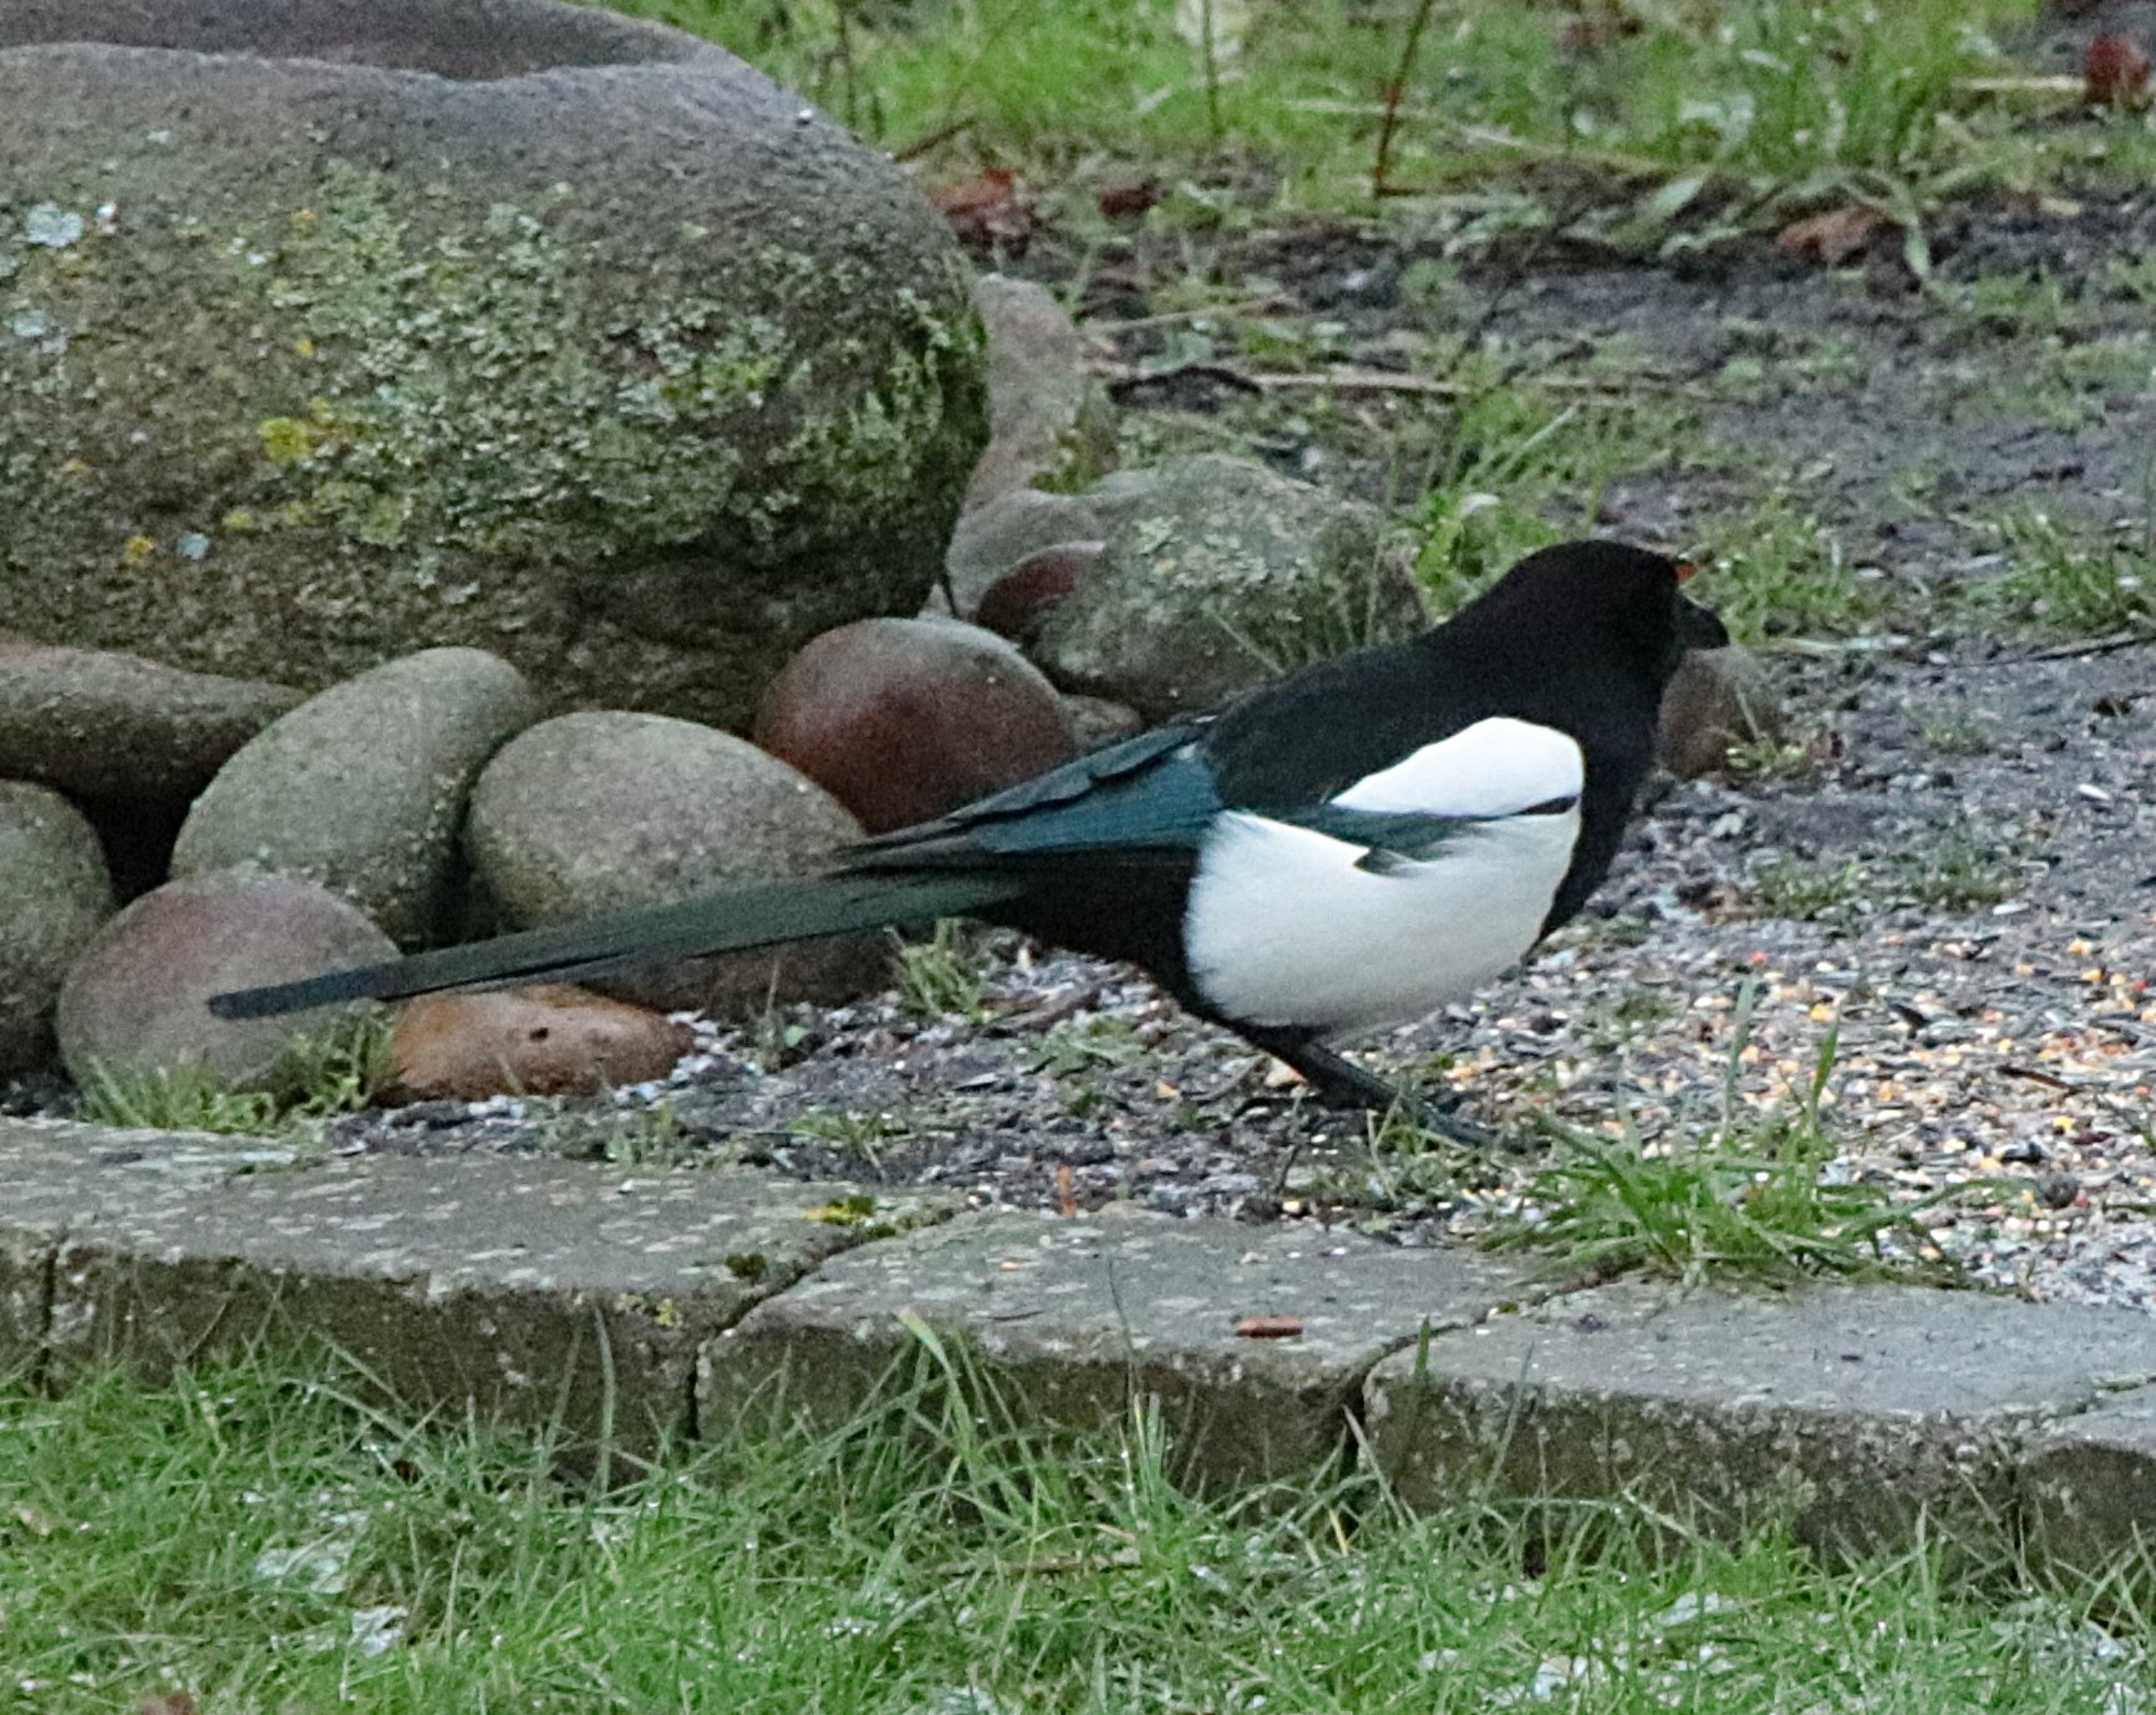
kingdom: Animalia
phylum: Chordata
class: Aves
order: Passeriformes
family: Corvidae
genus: Pica
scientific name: Pica pica
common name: Husskade
